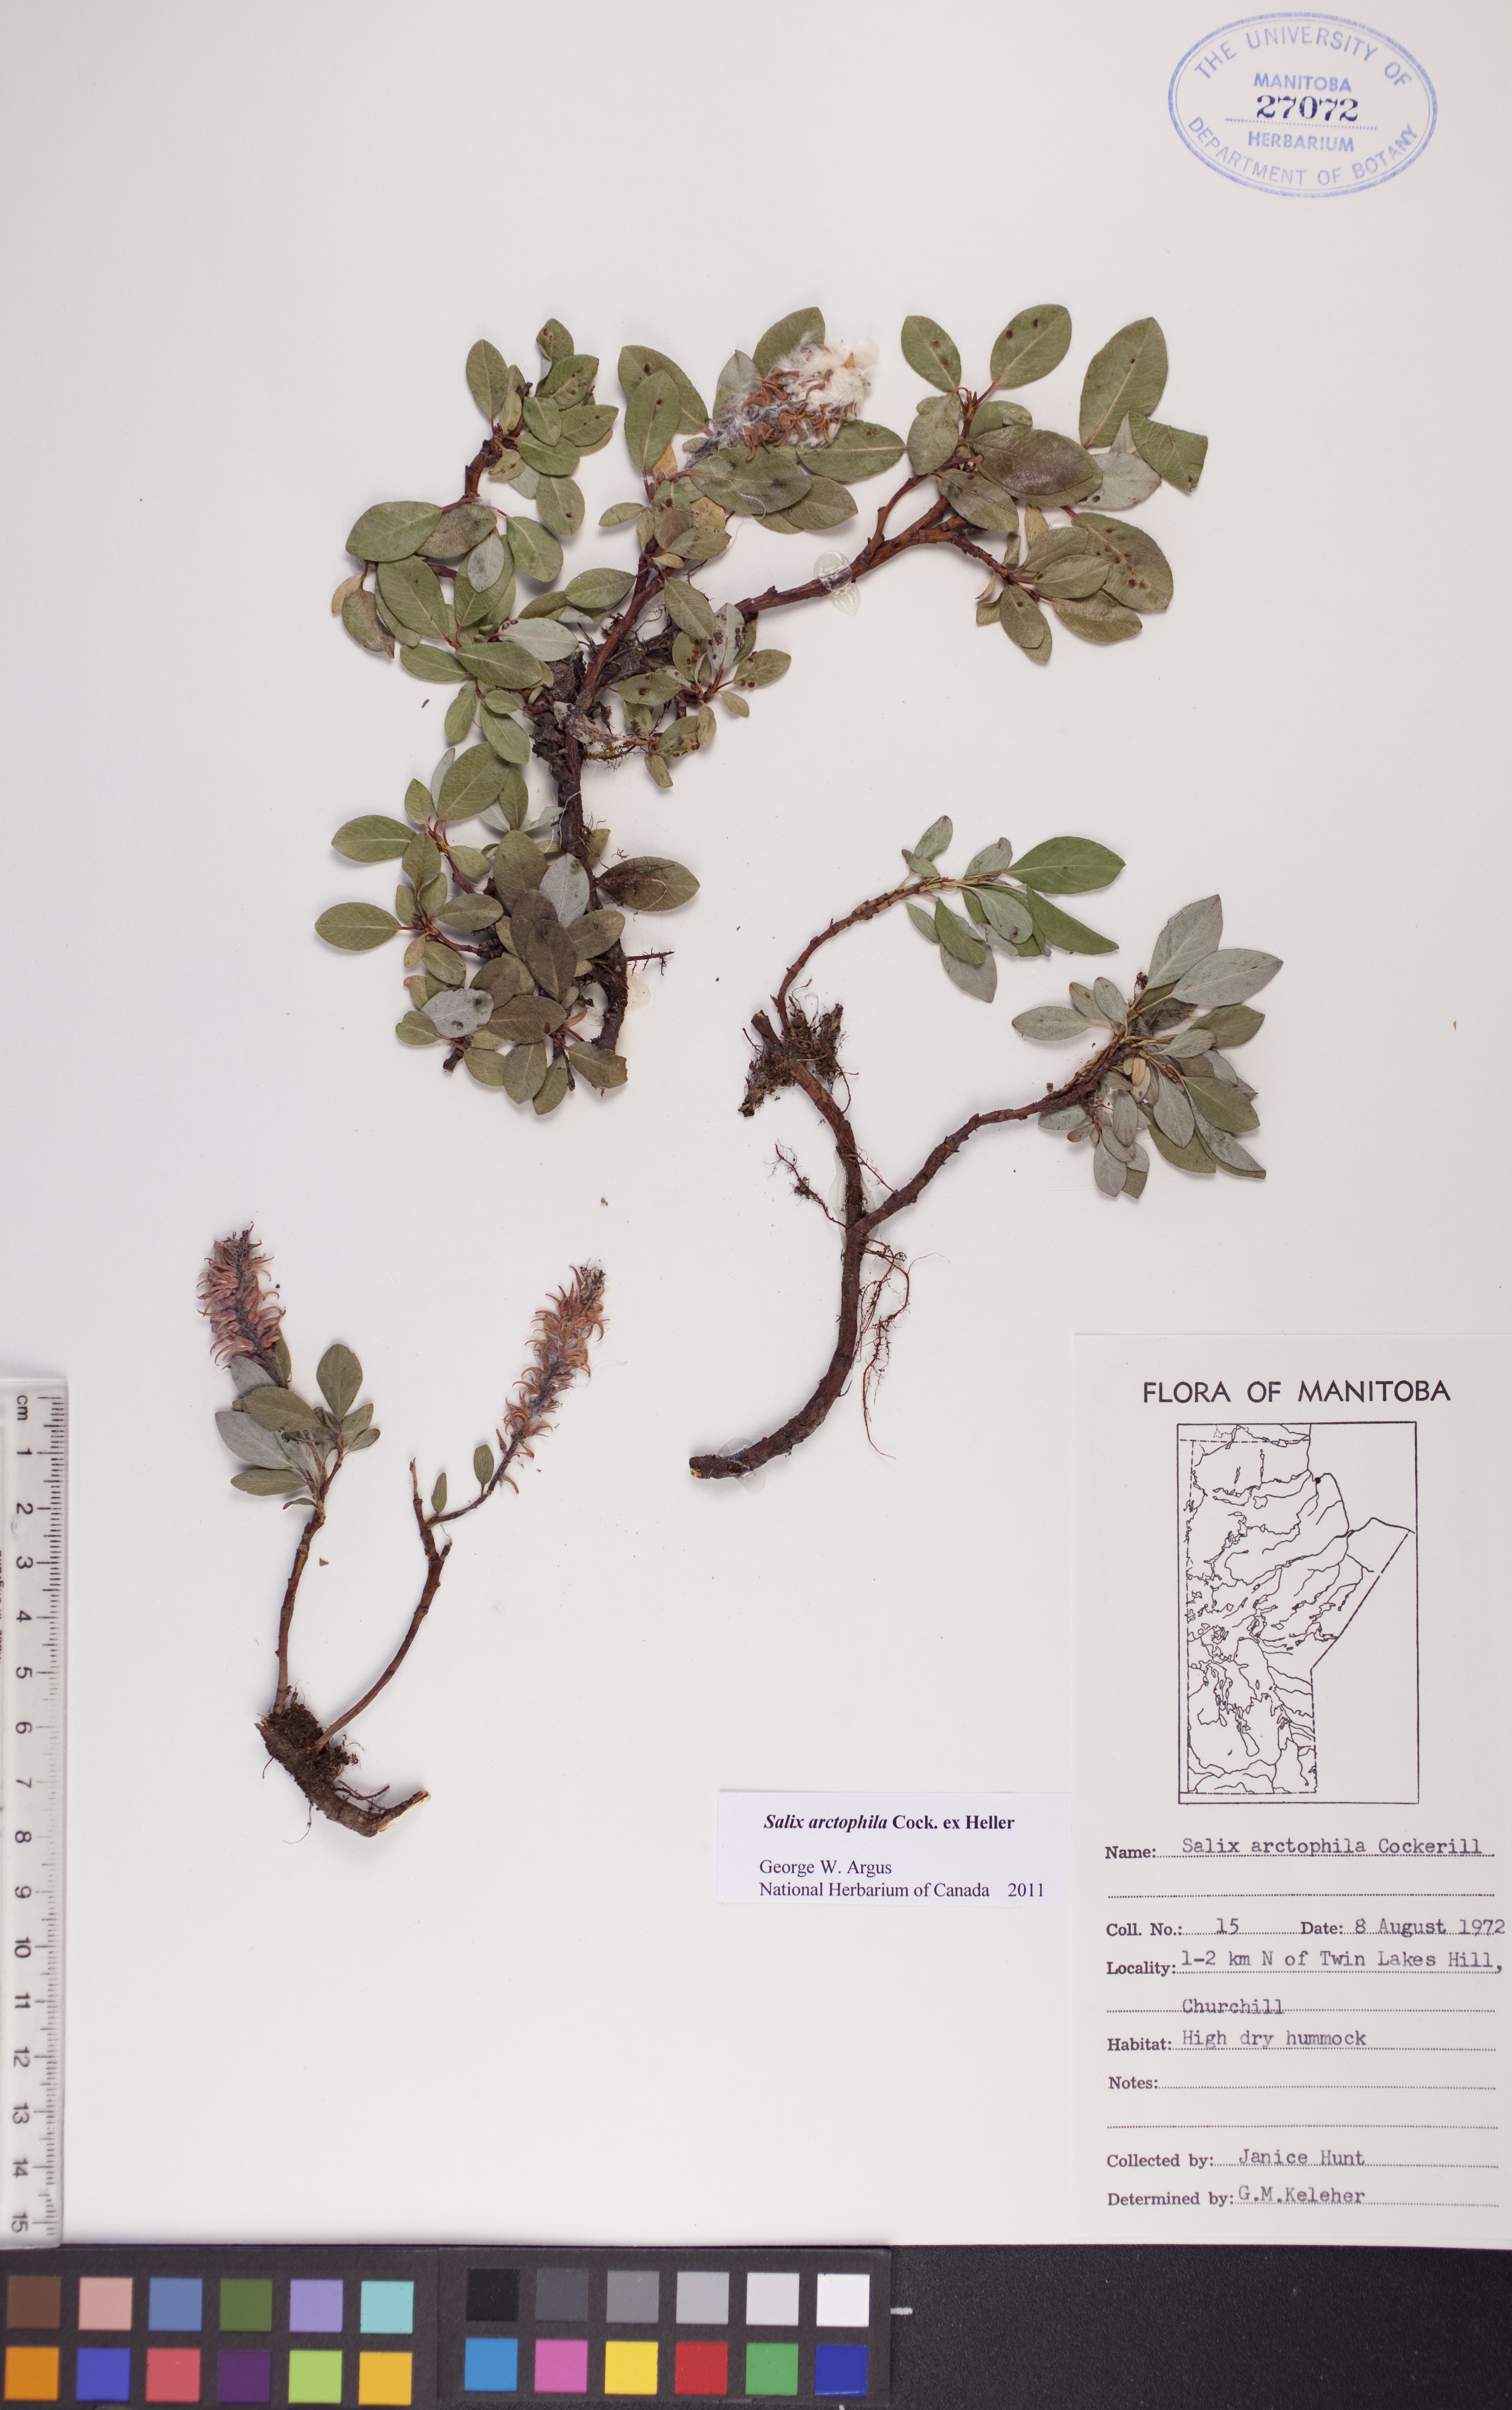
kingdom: Plantae
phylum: Tracheophyta
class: Magnoliopsida
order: Malpighiales
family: Salicaceae
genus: Salix
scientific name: Salix arctophila
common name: Greenland willow
